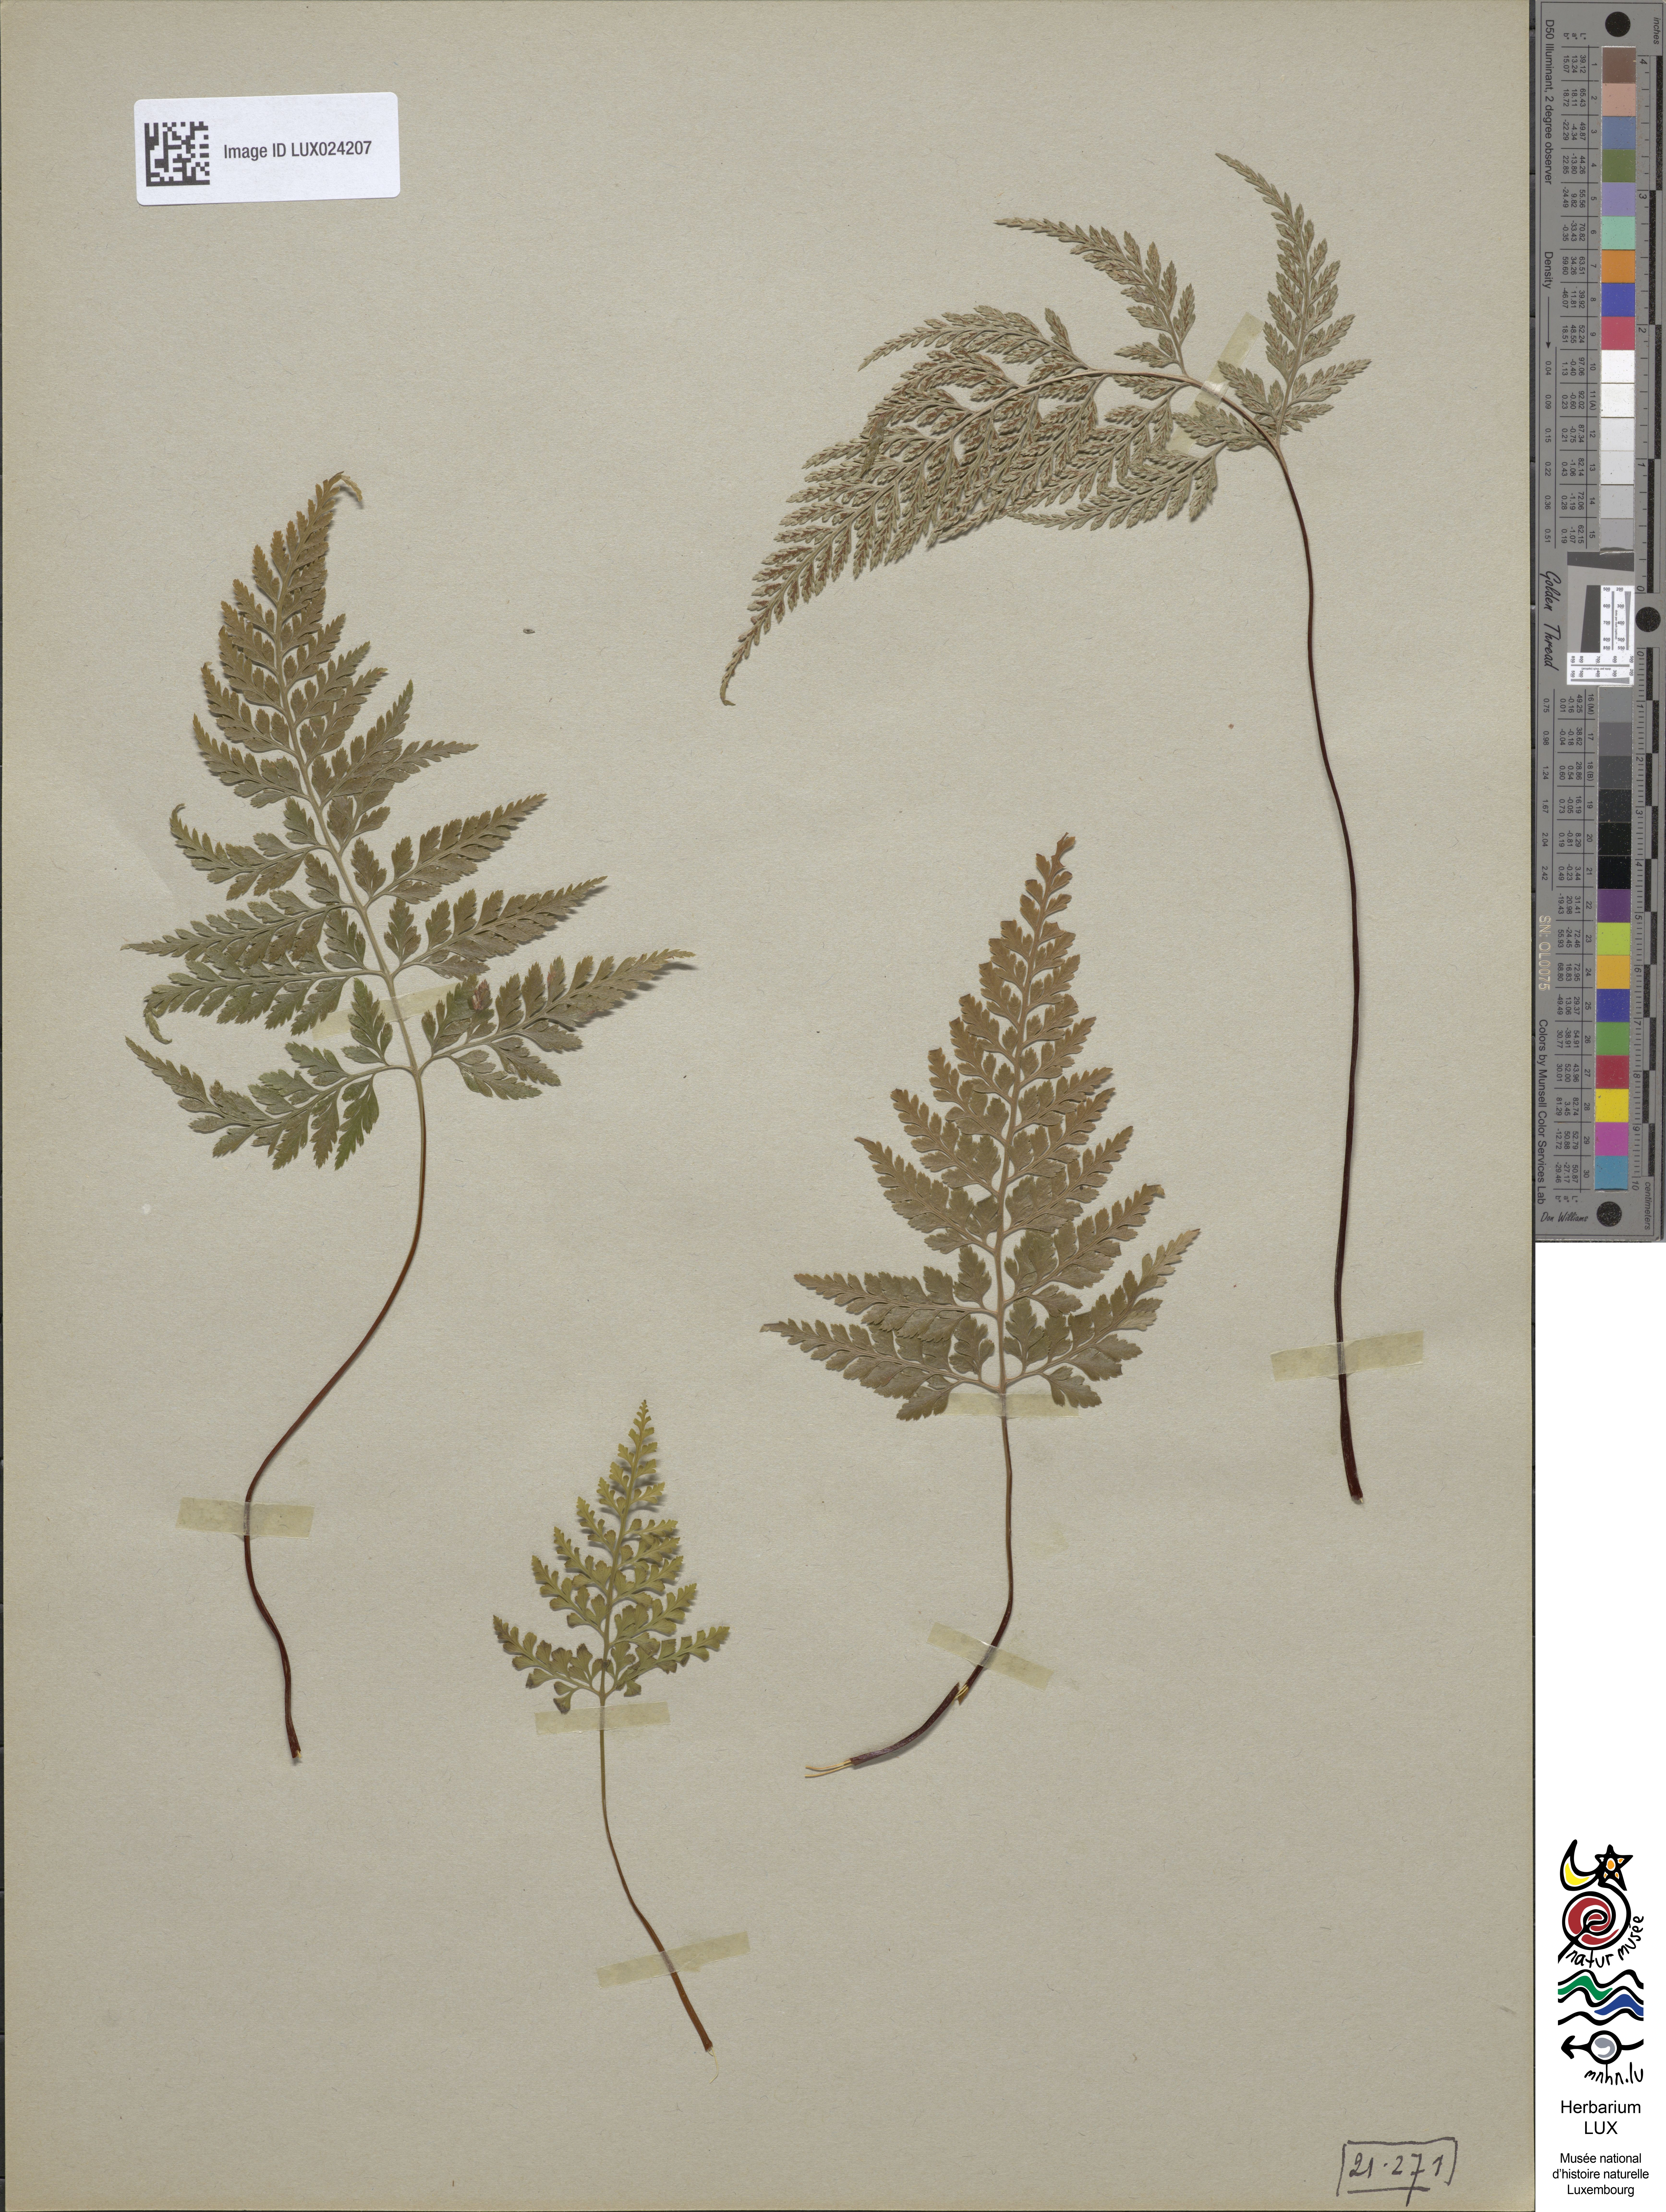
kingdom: Plantae
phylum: Tracheophyta
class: Polypodiopsida
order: Polypodiales
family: Aspleniaceae
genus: Asplenium
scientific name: Asplenium onopteris
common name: Irish spleenwort
